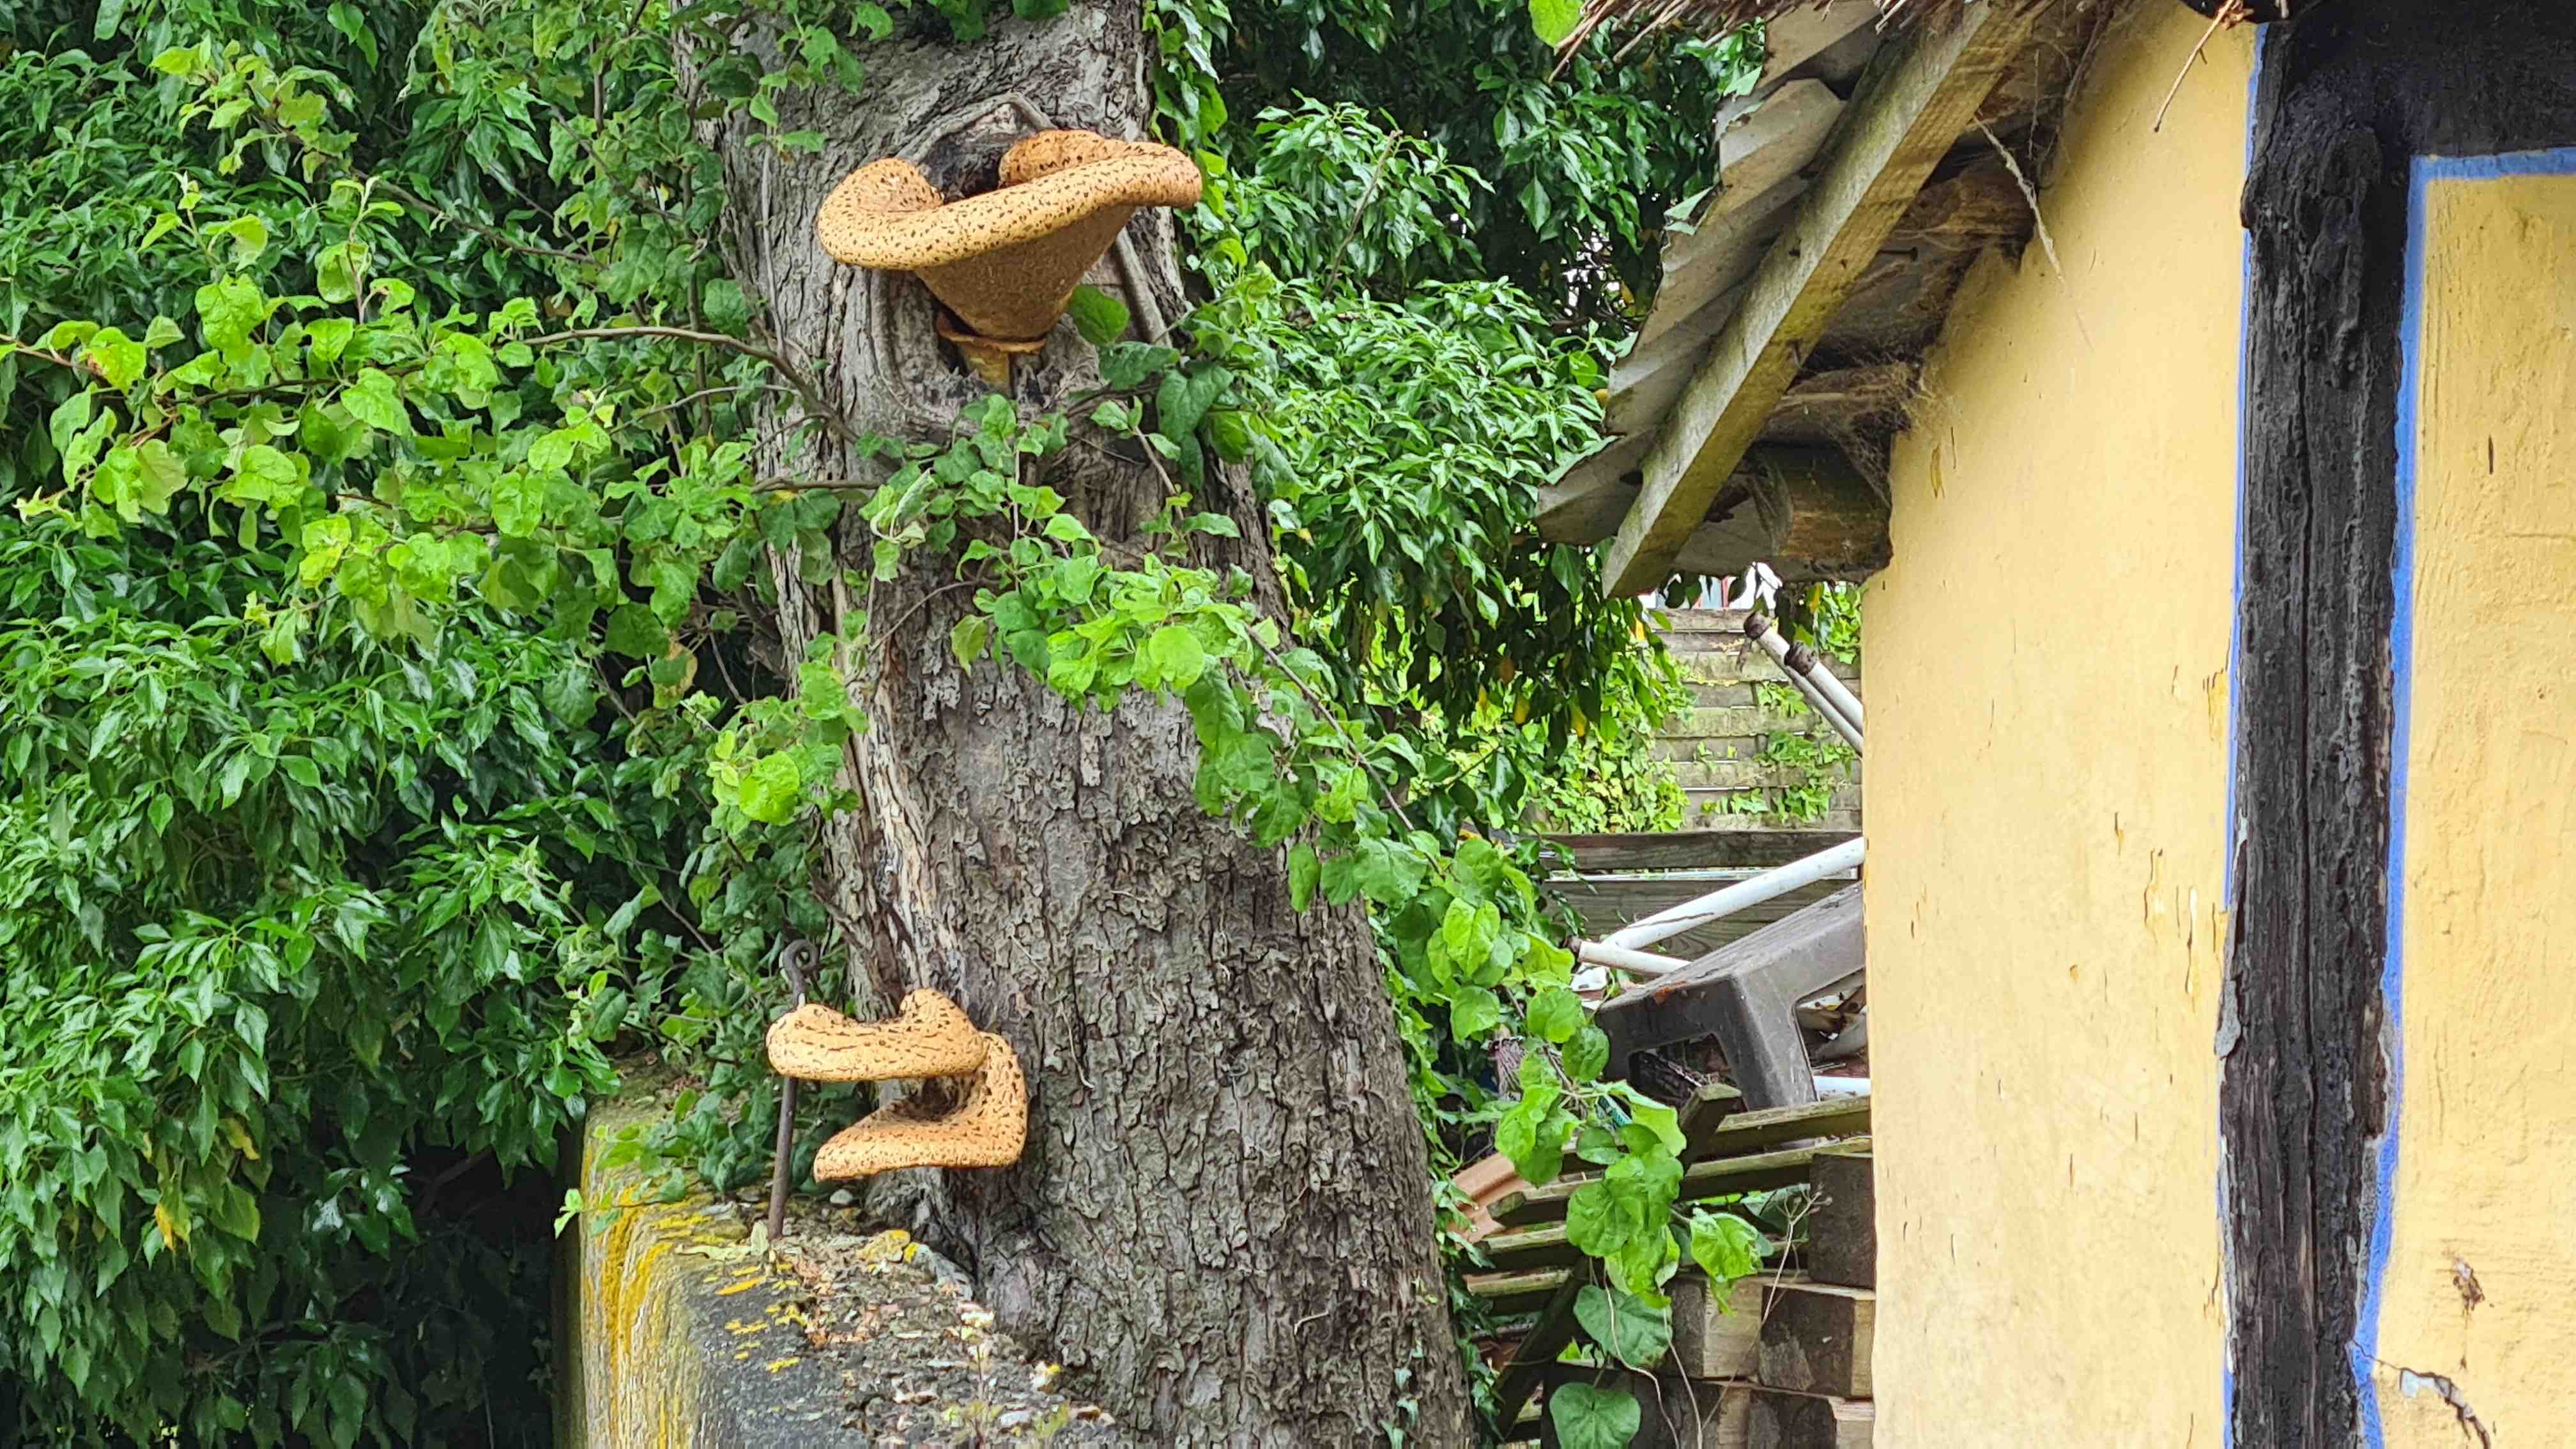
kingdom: Fungi
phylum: Basidiomycota
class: Agaricomycetes
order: Polyporales
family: Polyporaceae
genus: Cerioporus
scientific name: Cerioporus squamosus
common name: skællet stilkporesvamp
